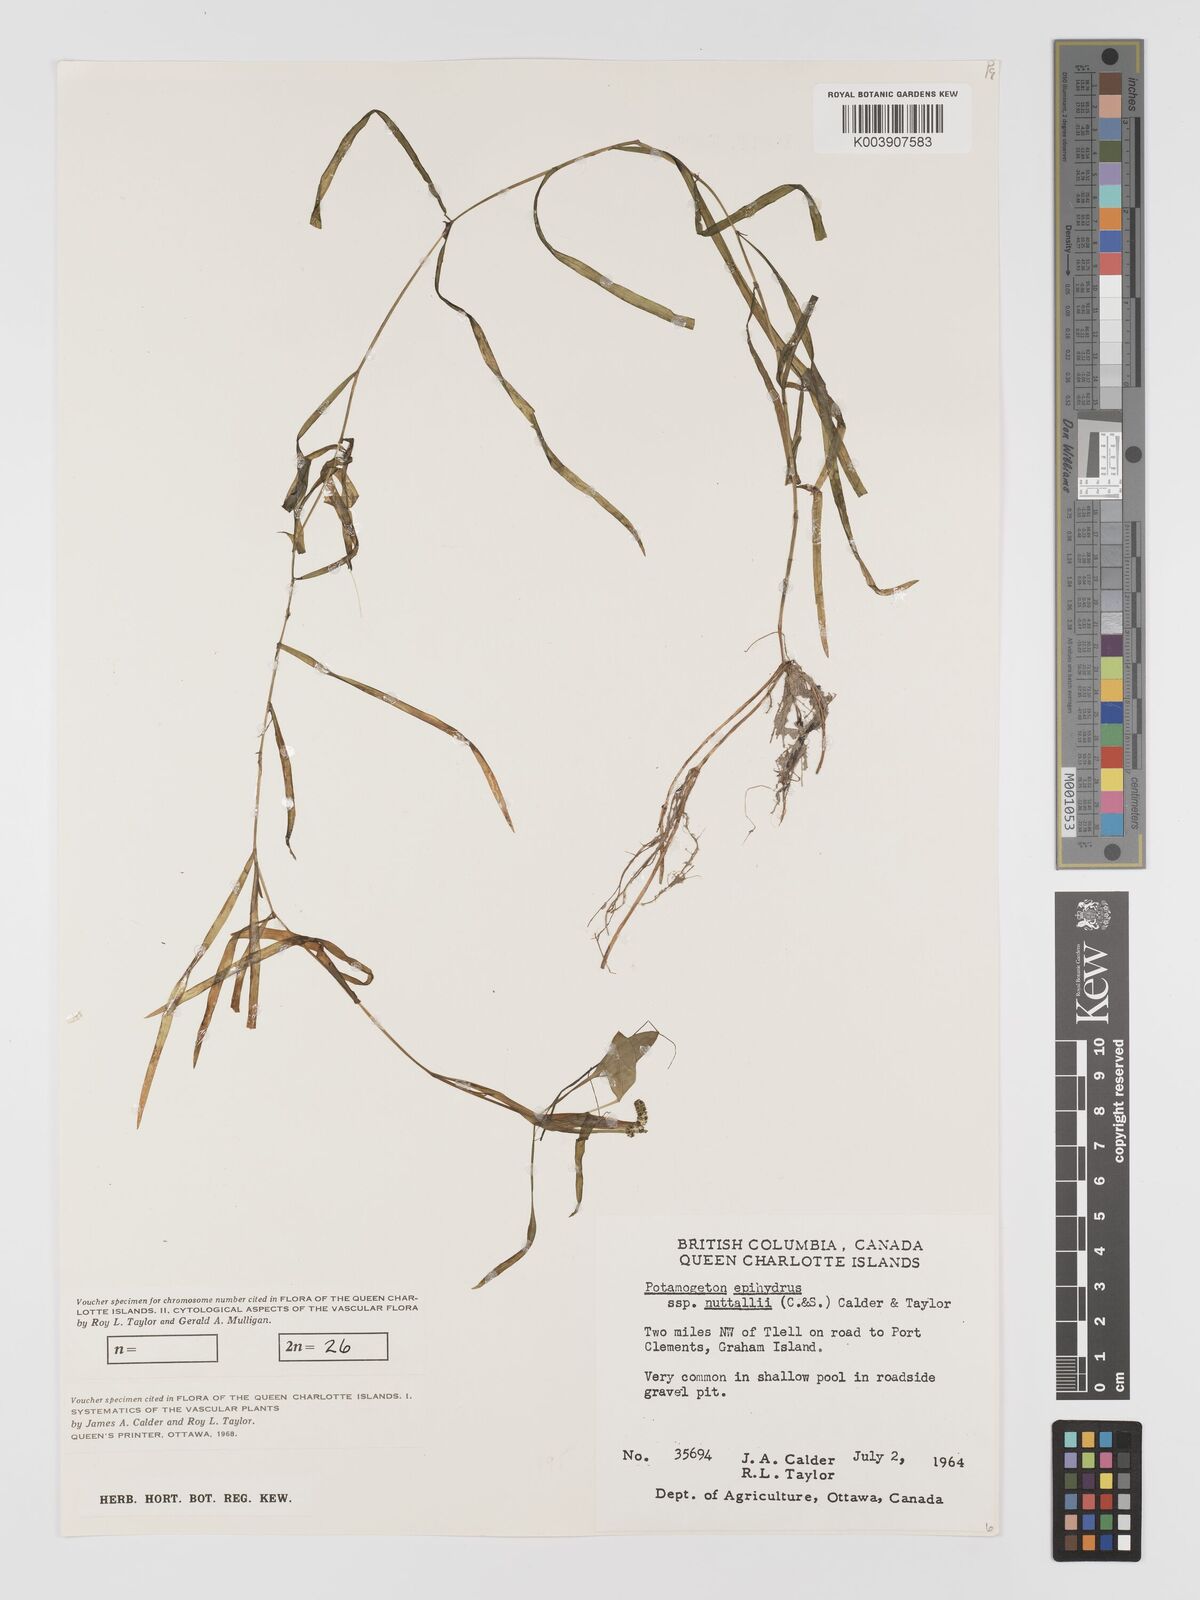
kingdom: Plantae
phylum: Tracheophyta
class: Liliopsida
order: Alismatales
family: Potamogetonaceae
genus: Potamogeton
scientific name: Potamogeton epihydrus
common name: American pondweed
